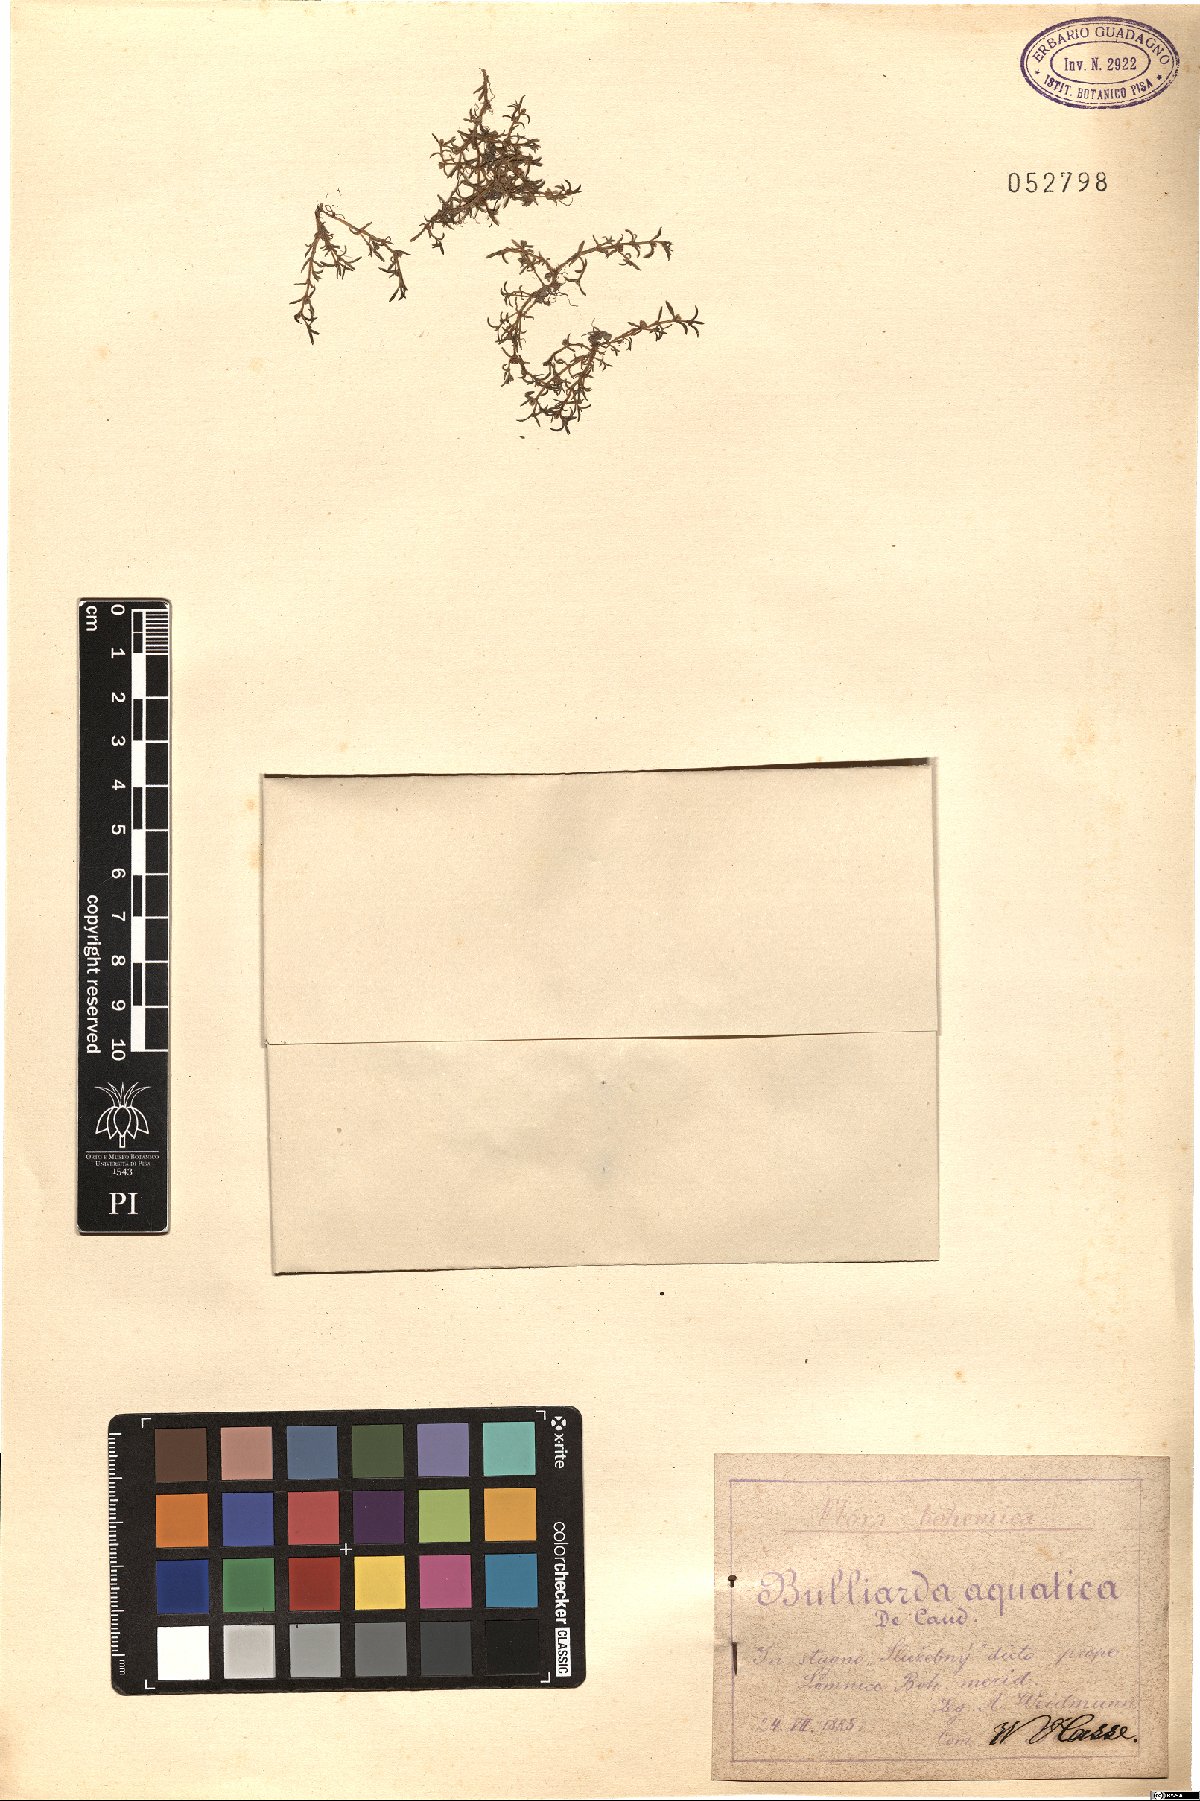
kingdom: Plantae
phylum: Tracheophyta
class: Magnoliopsida
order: Saxifragales
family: Crassulaceae
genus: Crassula
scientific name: Crassula aquatica
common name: Pigmyweed
